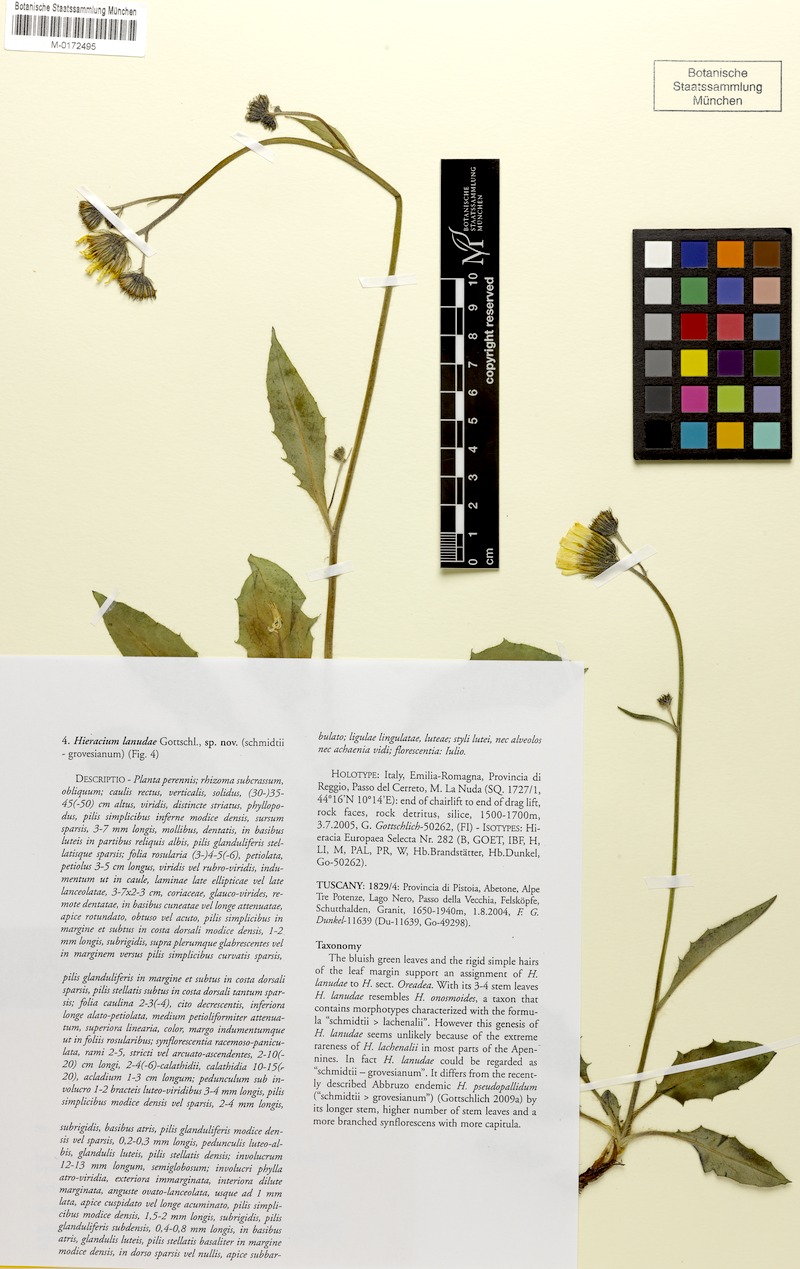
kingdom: Plantae
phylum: Tracheophyta
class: Magnoliopsida
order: Asterales
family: Asteraceae
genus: Hieracium
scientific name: Hieracium pallidum
